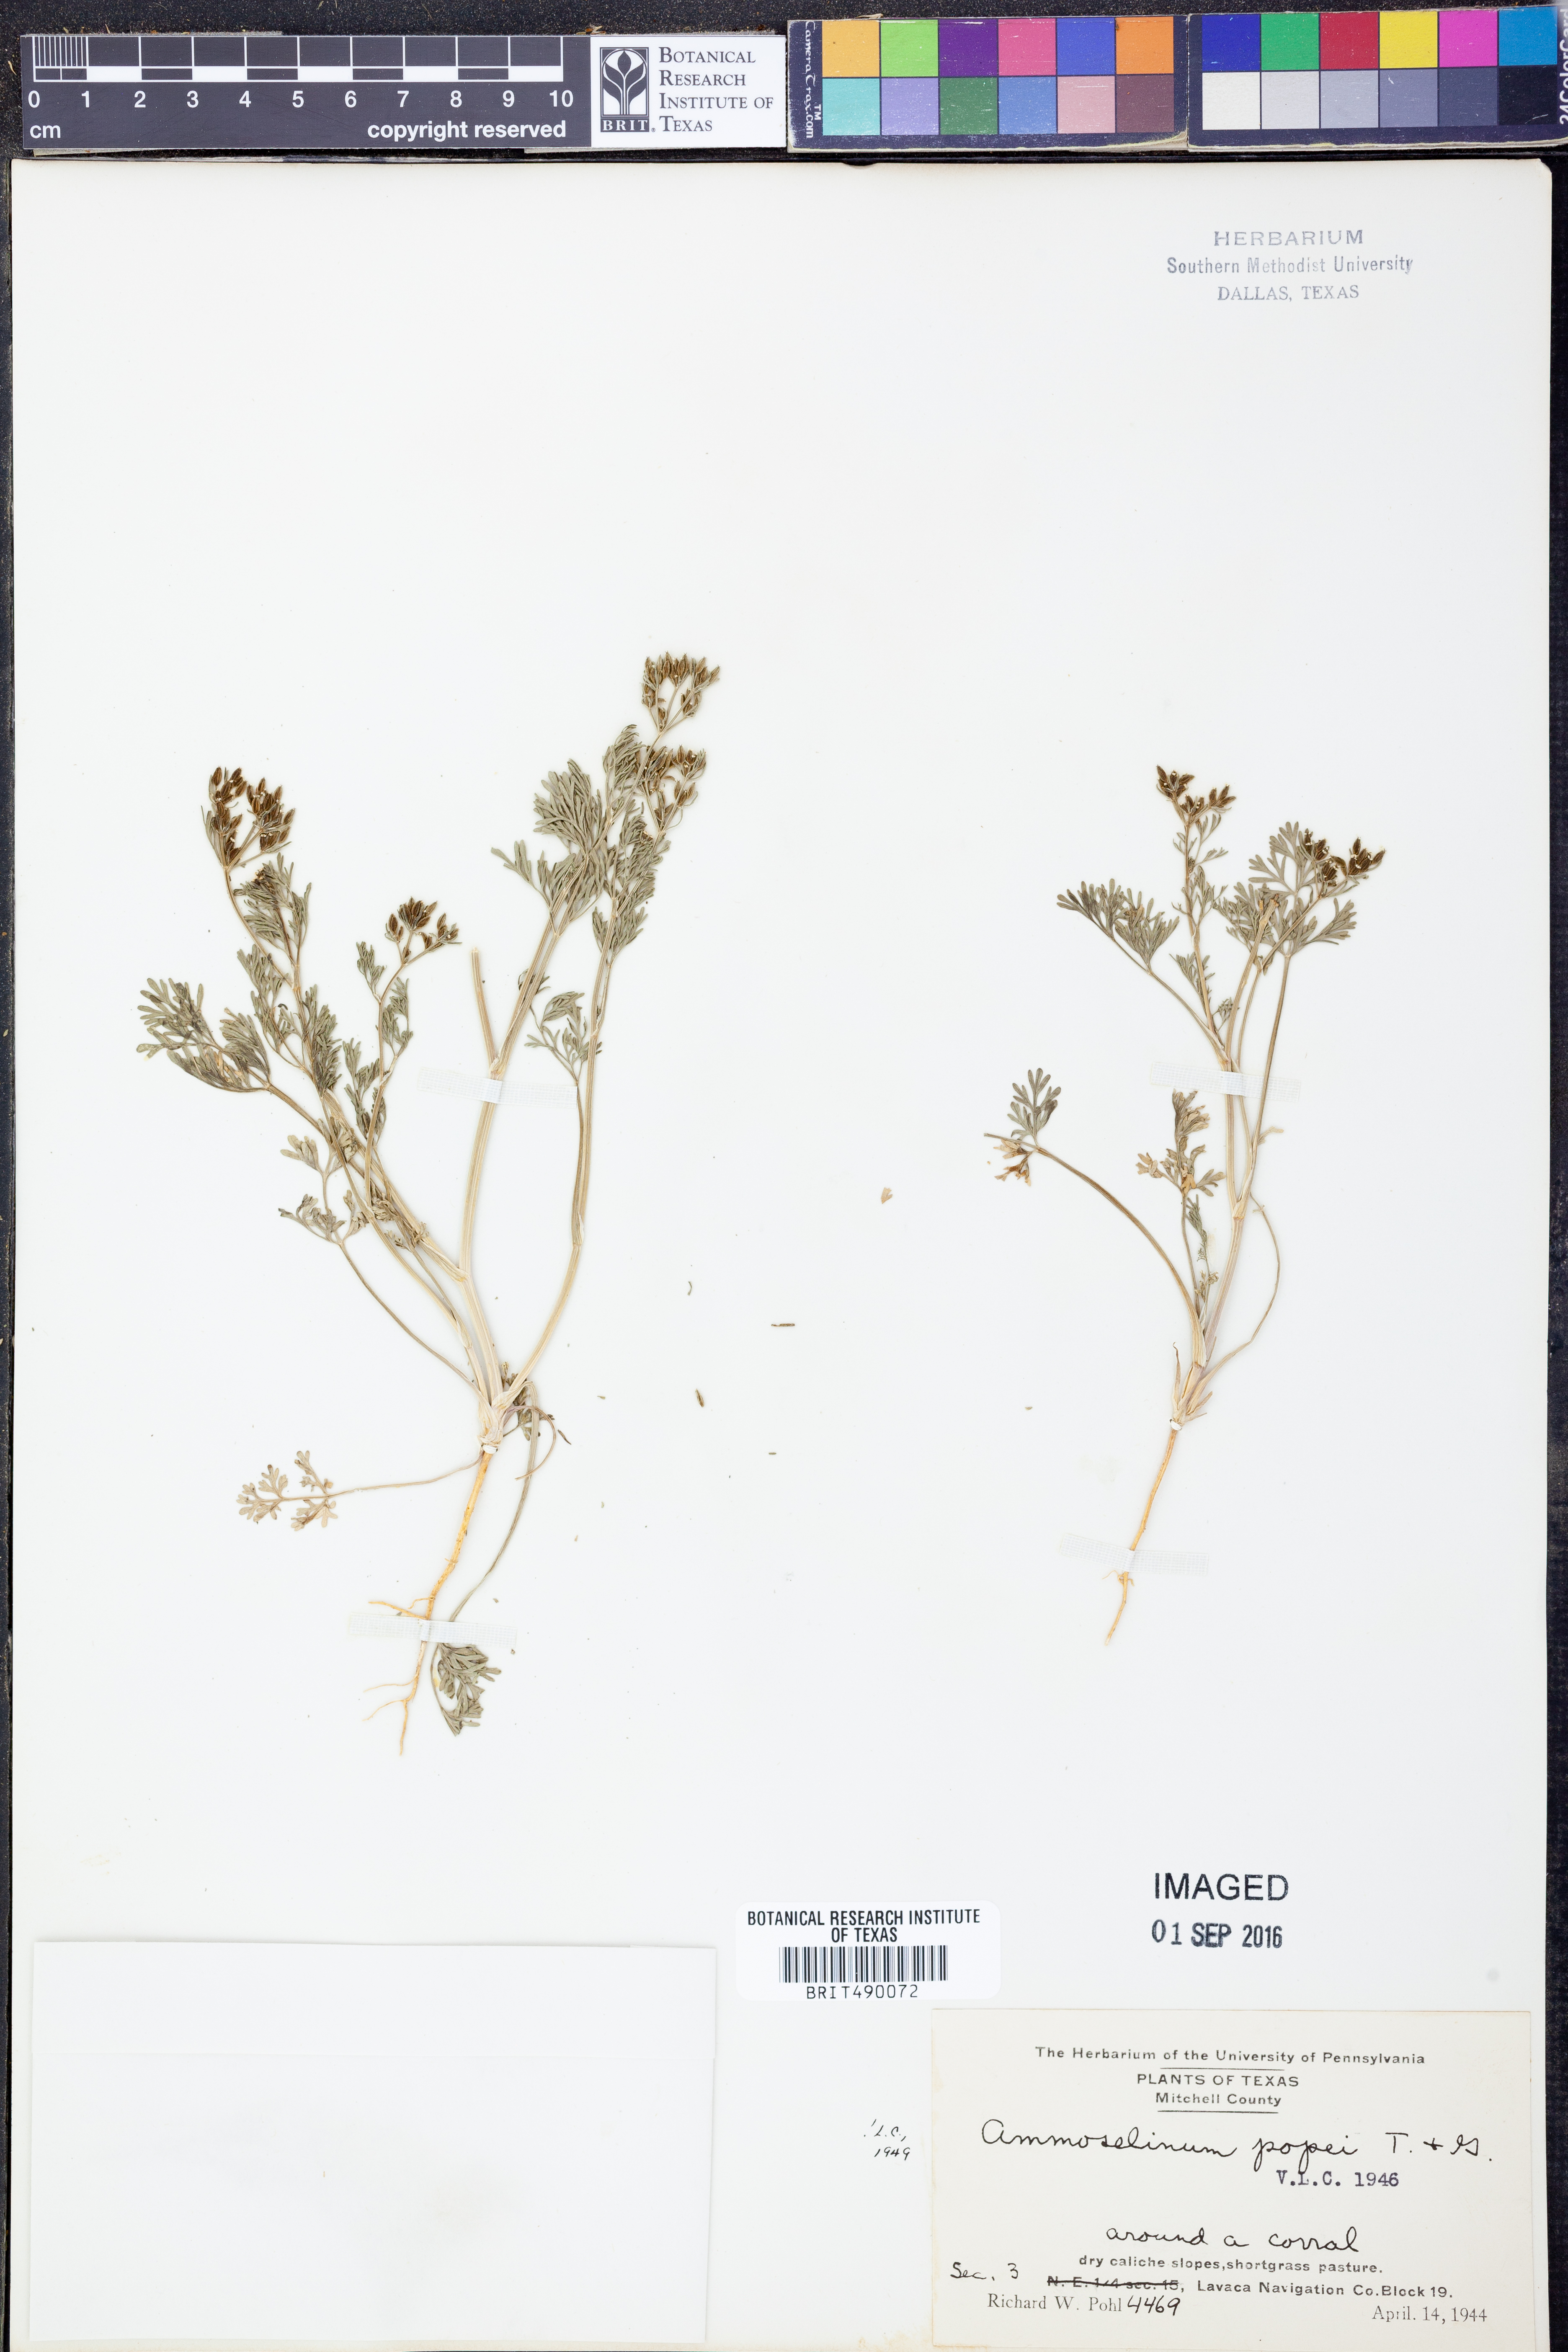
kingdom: Plantae
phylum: Tracheophyta
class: Magnoliopsida
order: Apiales
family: Apiaceae
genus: Ammoselinum
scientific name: Ammoselinum popei
